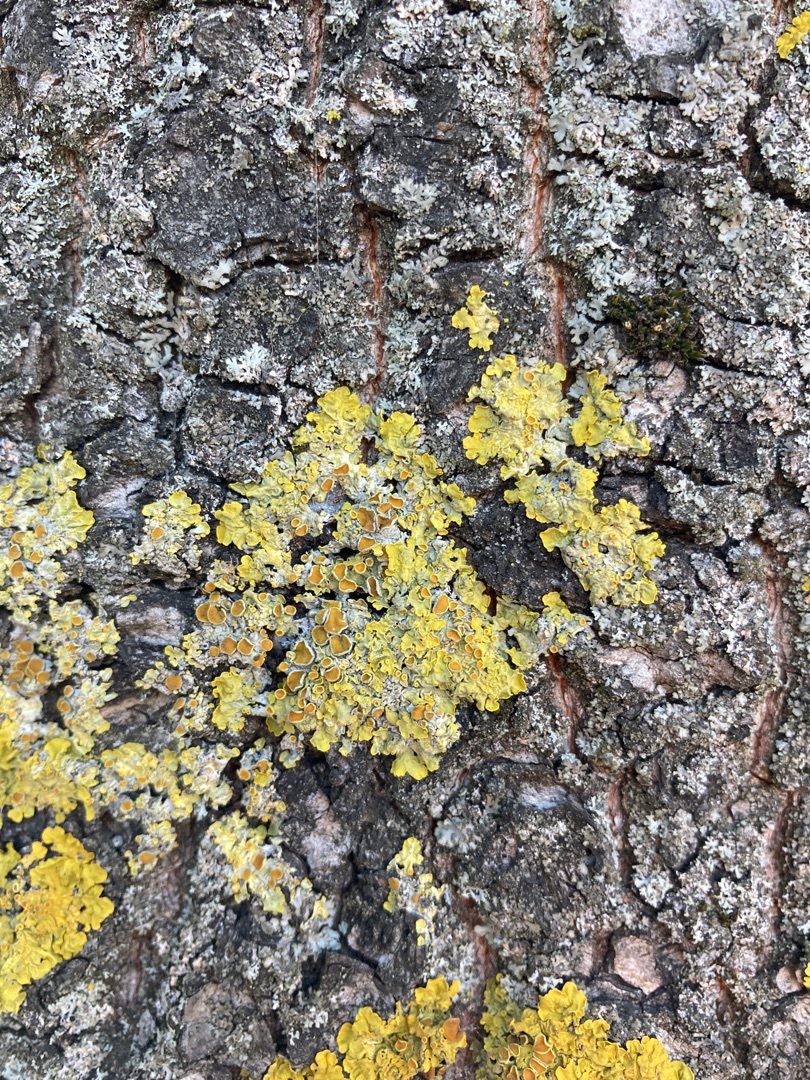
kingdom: Fungi
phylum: Ascomycota
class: Lecanoromycetes
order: Teloschistales
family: Teloschistaceae
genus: Xanthoria
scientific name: Xanthoria parietina
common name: Almindelig væggelav
